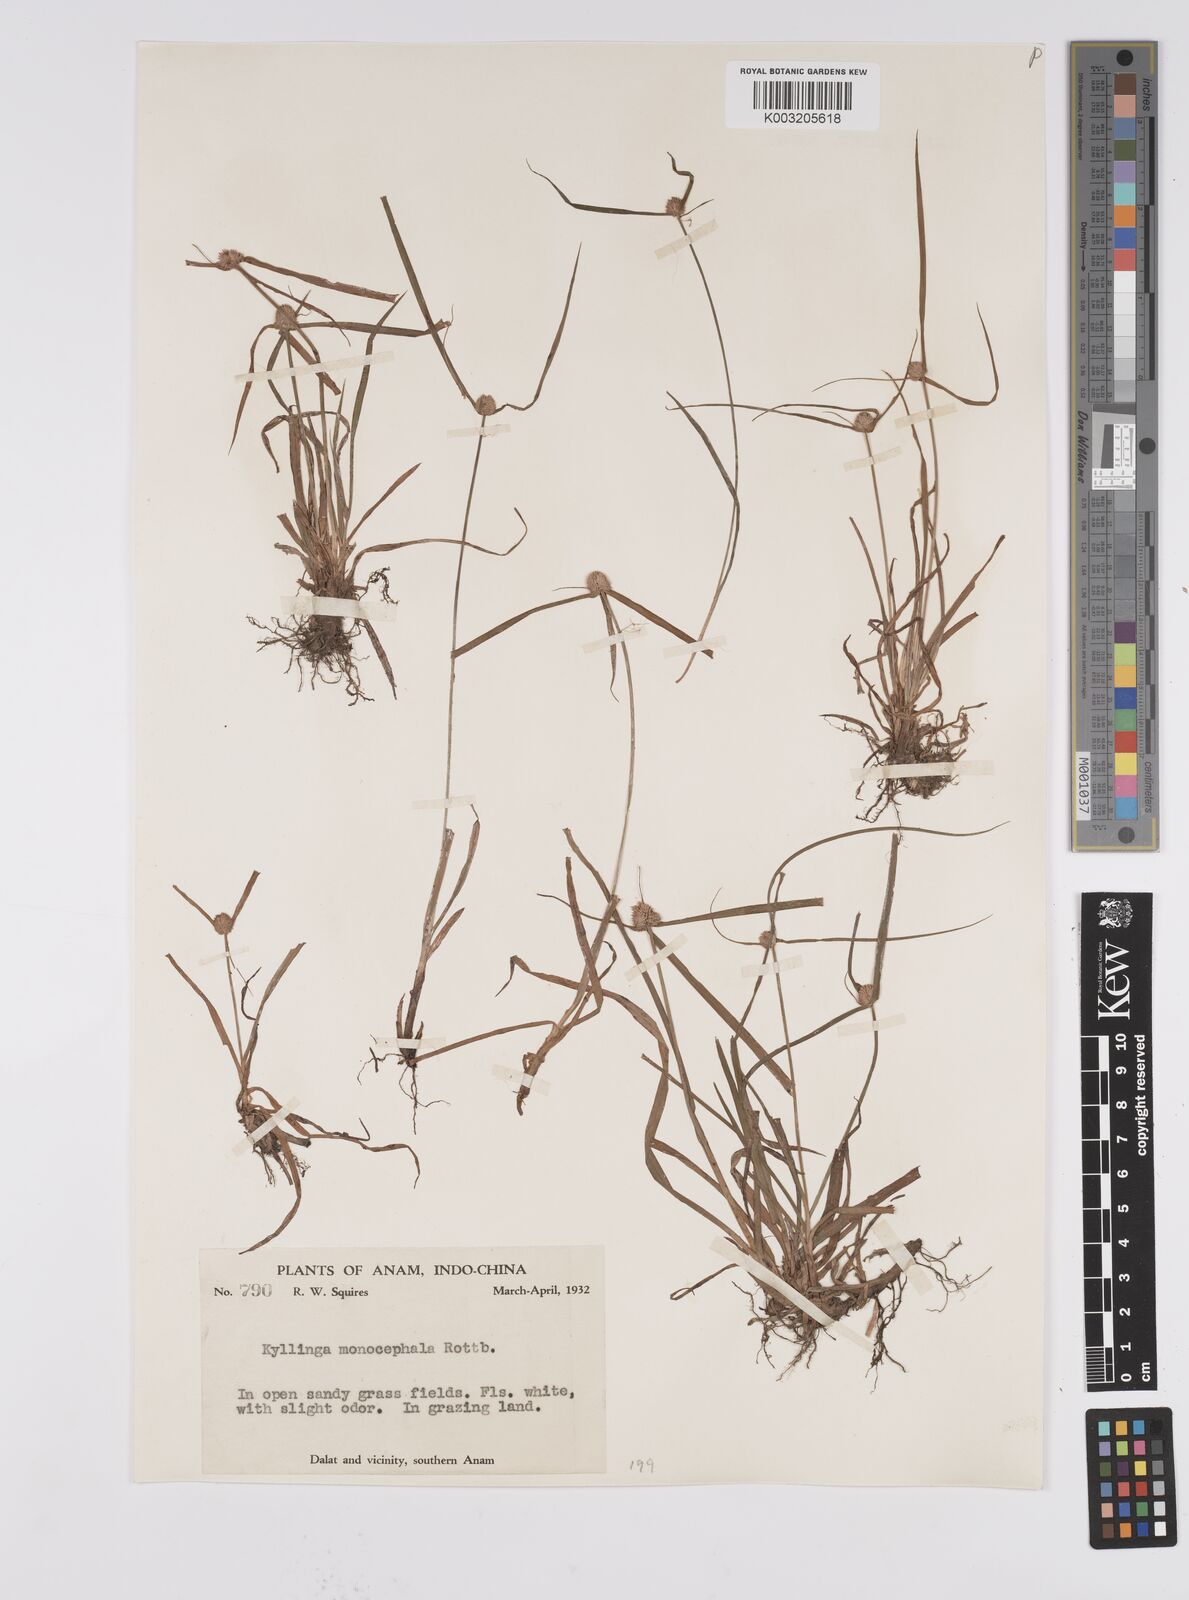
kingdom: Plantae
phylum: Tracheophyta
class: Liliopsida
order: Poales
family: Cyperaceae
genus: Cyperus
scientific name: Cyperus
